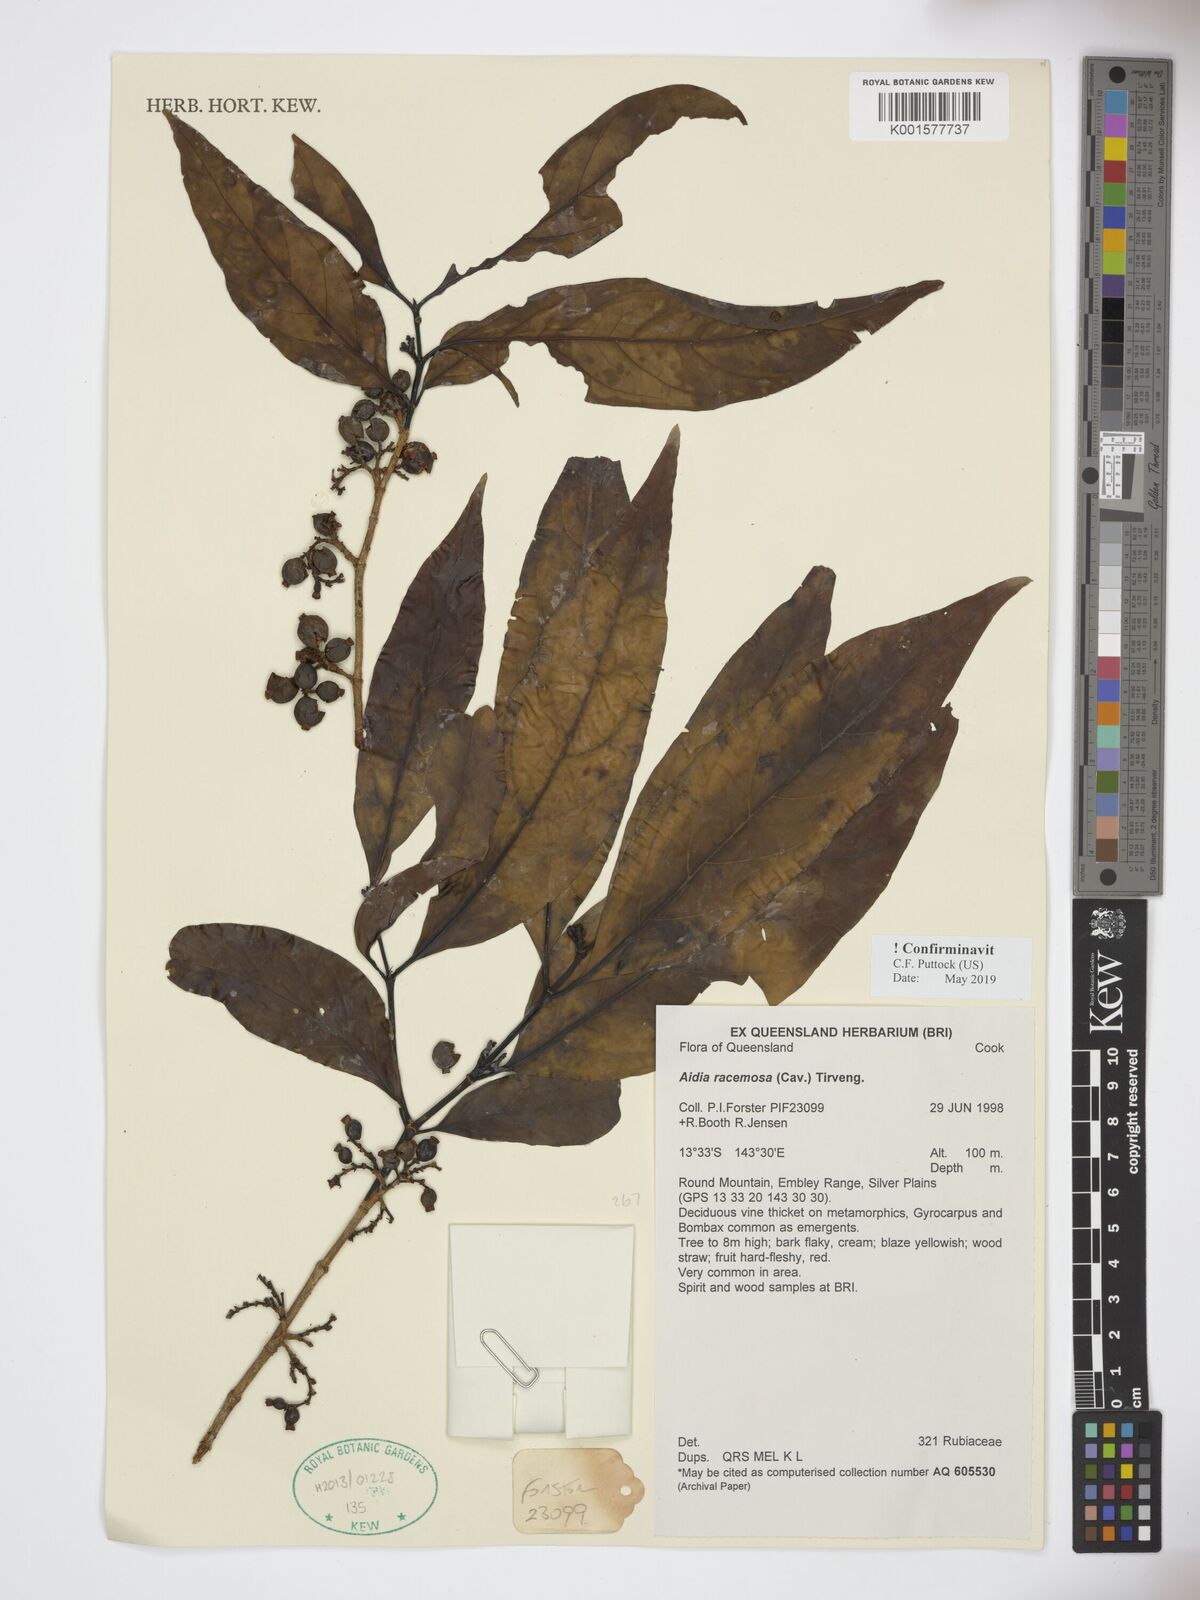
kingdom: Plantae
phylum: Tracheophyta
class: Magnoliopsida
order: Gentianales
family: Rubiaceae
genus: Aidia
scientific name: Aidia racemosa
